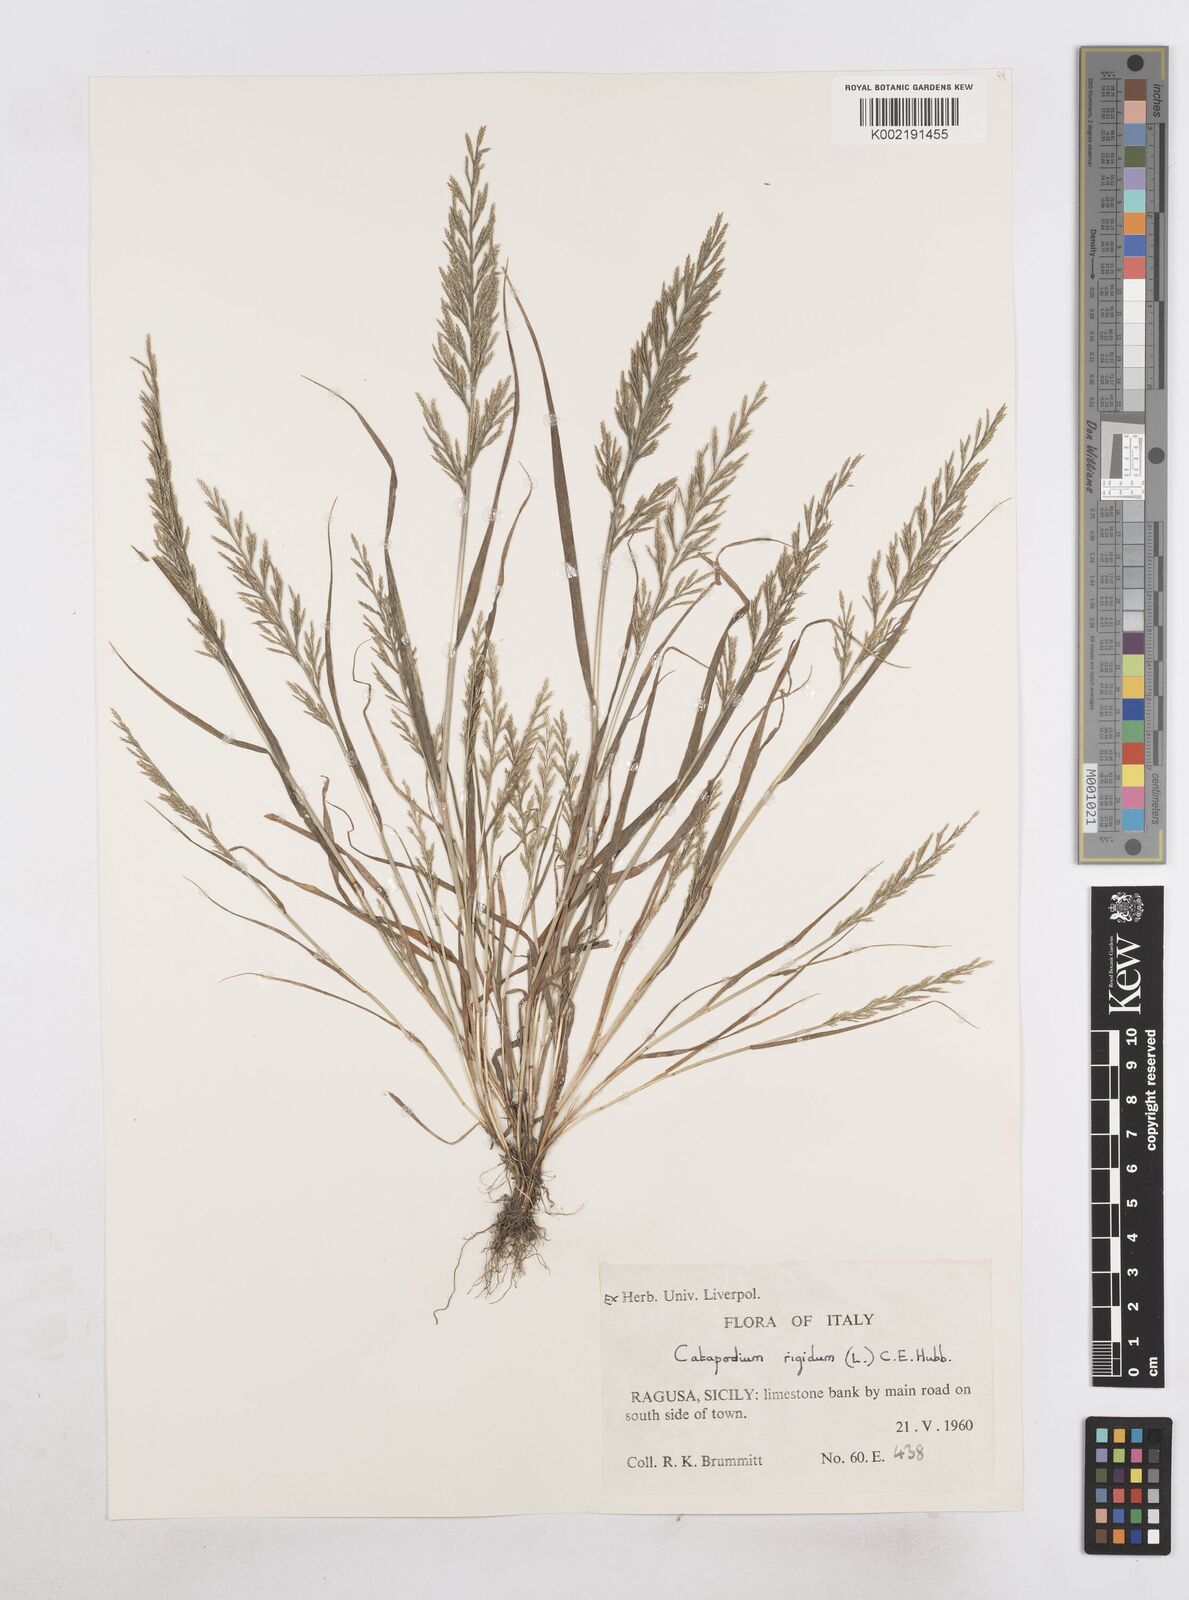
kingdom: Plantae
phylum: Tracheophyta
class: Liliopsida
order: Poales
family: Poaceae
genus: Catapodium
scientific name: Catapodium rigidum
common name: Fern-grass
